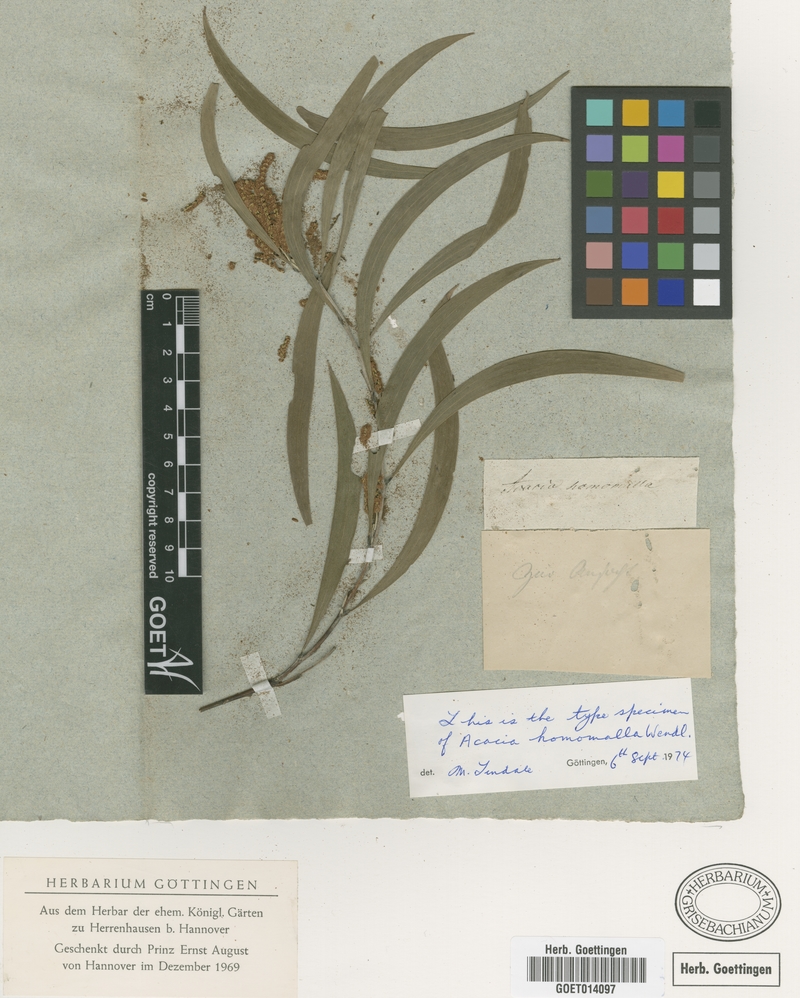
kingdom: Plantae
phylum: Tracheophyta
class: Magnoliopsida
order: Fabales
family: Fabaceae
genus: Acacia
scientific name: Acacia binervia
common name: Coast myall
